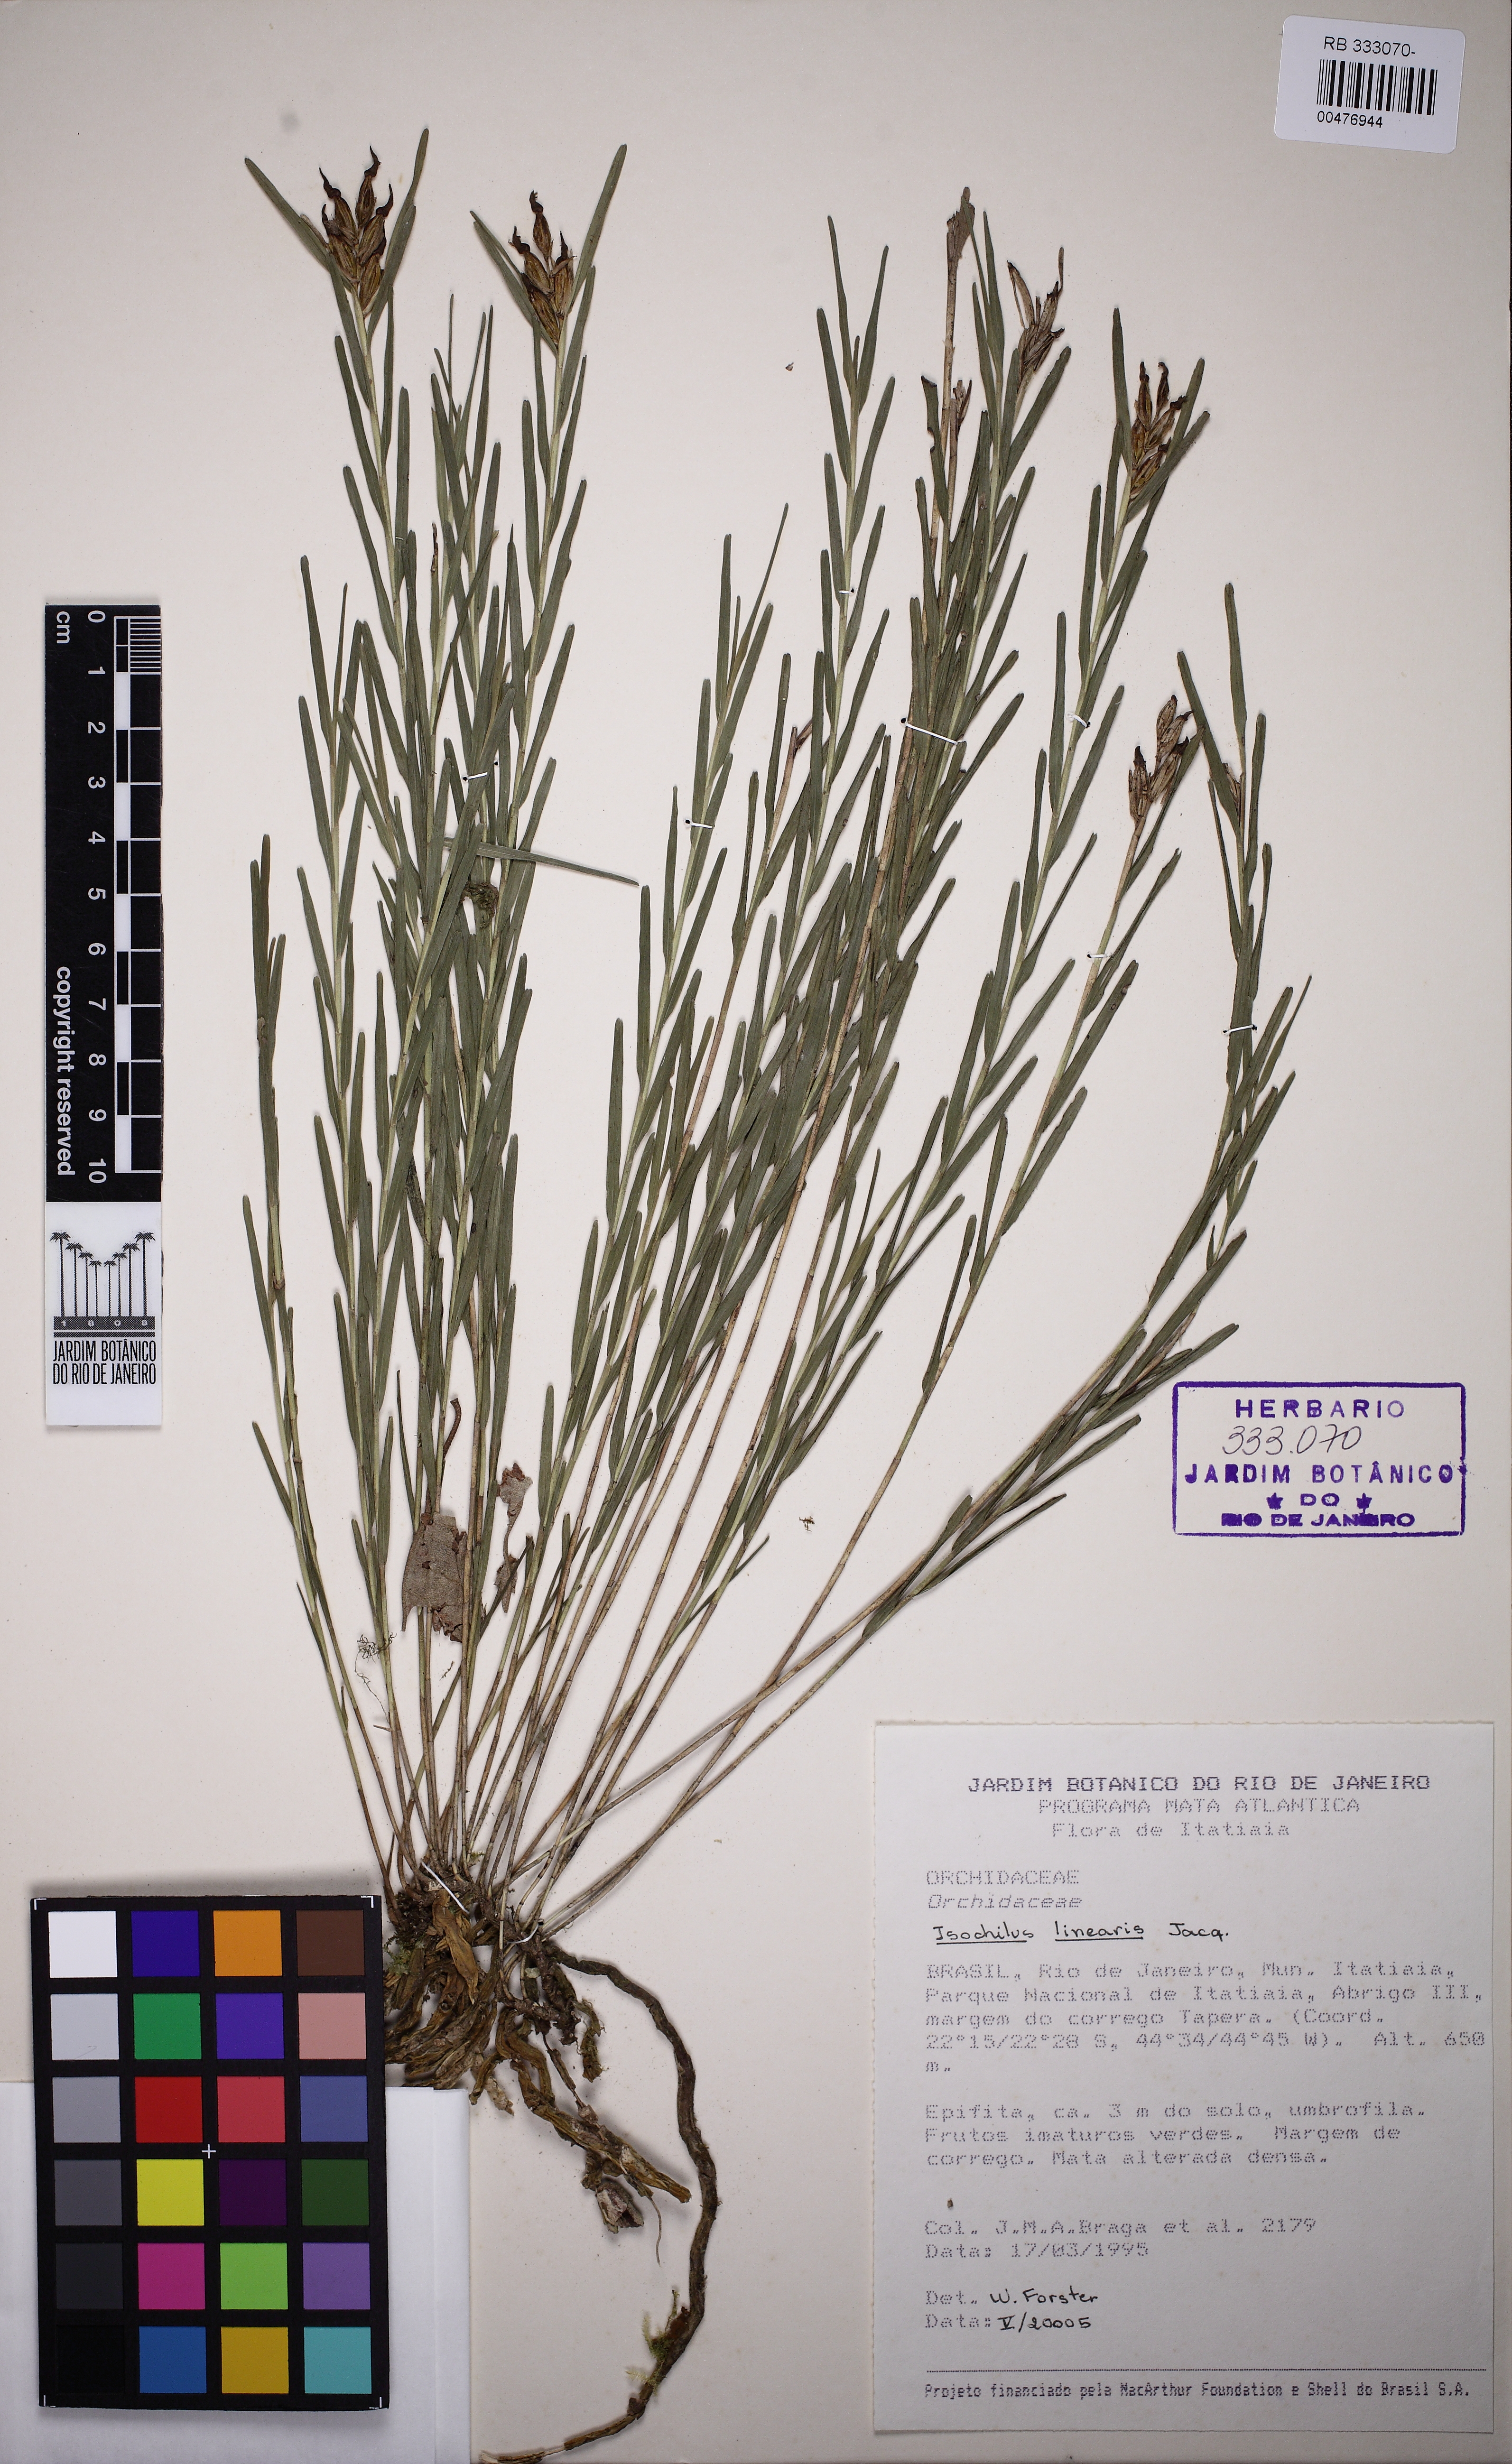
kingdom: Plantae
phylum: Tracheophyta
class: Liliopsida
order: Asparagales
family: Orchidaceae
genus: Isochilus
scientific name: Isochilus linearis
